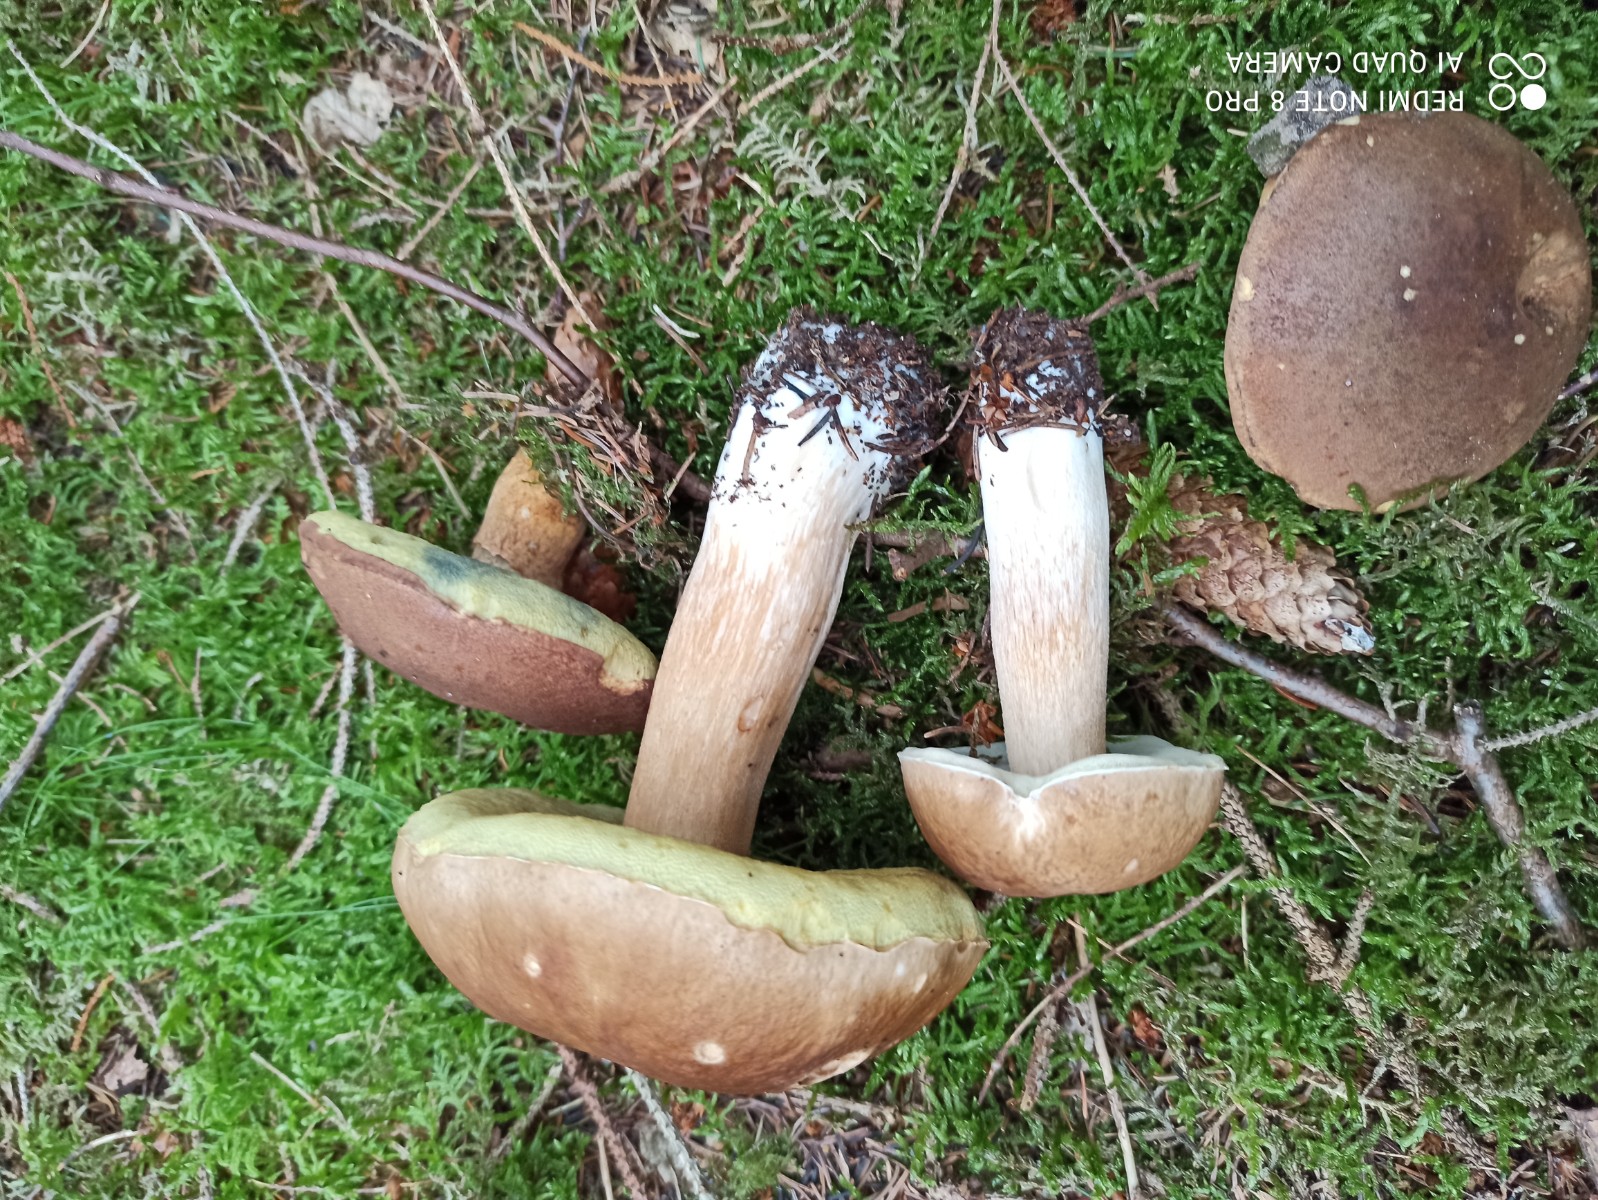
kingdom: Fungi
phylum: Basidiomycota
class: Agaricomycetes
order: Boletales
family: Boletaceae
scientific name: Boletaceae
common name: rørhatfamilien
